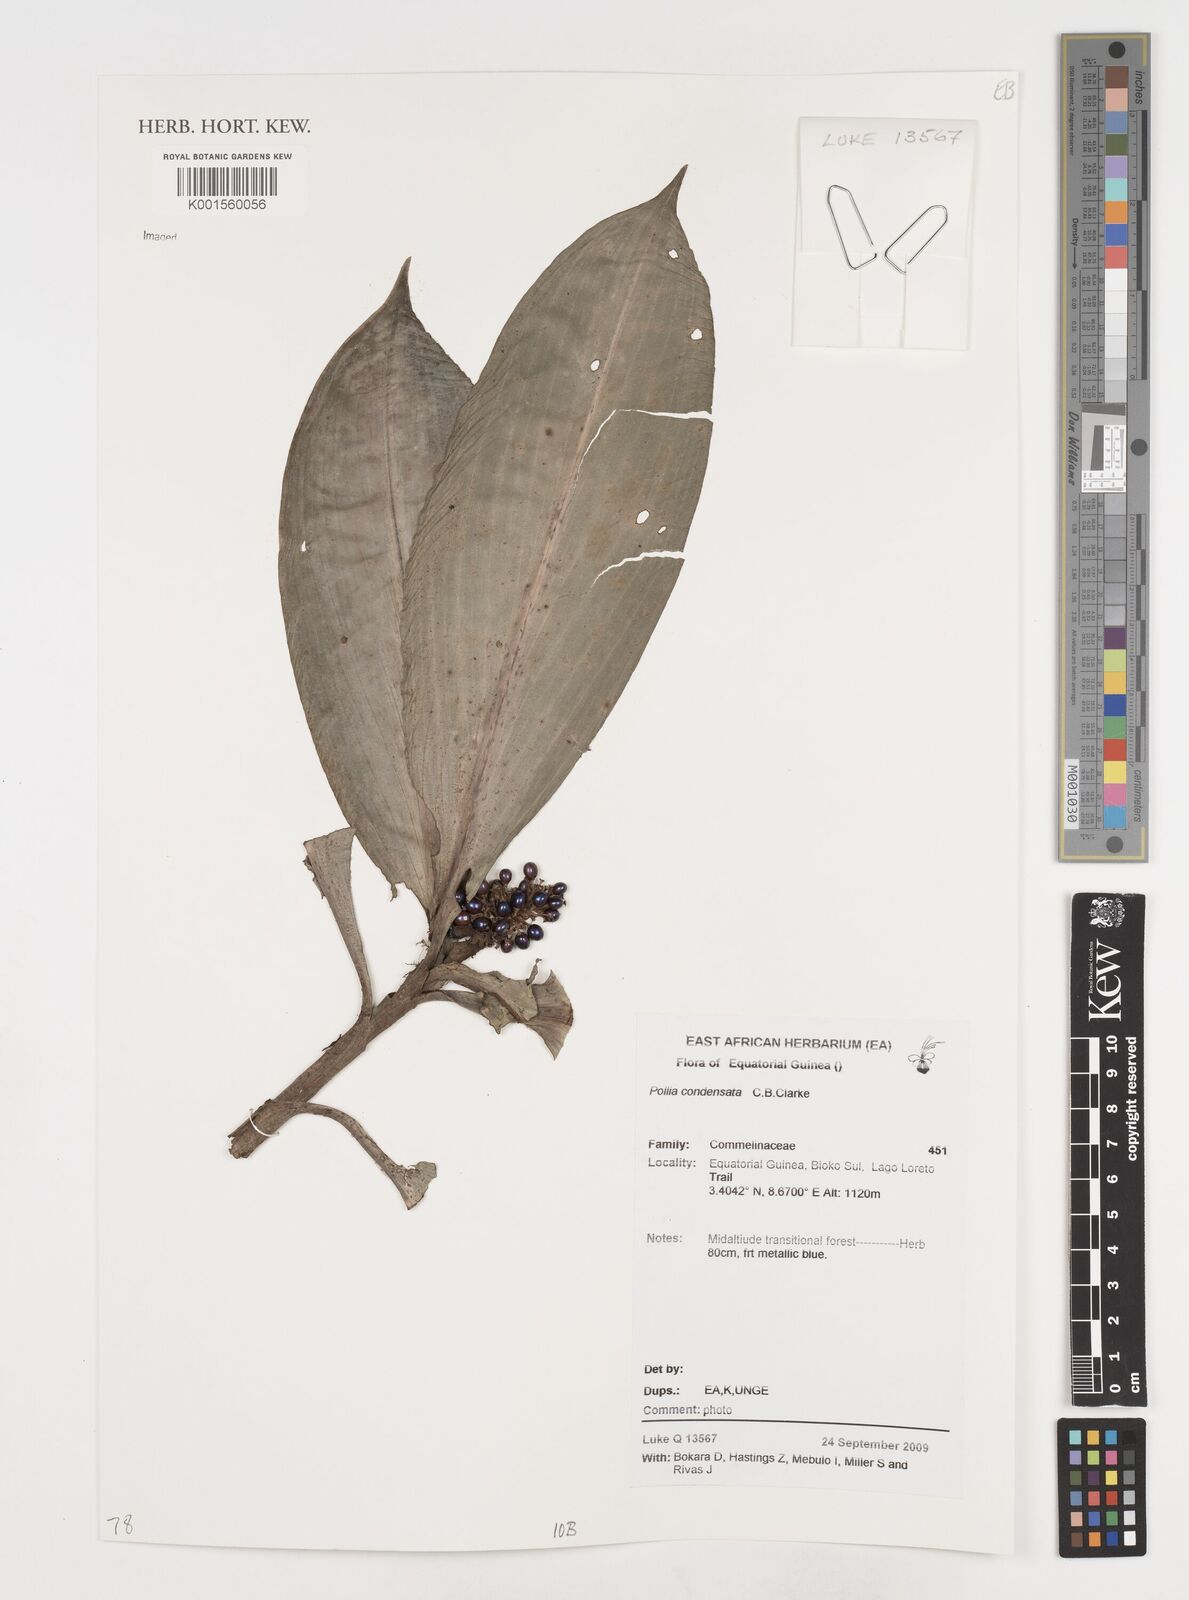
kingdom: Plantae
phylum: Tracheophyta
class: Liliopsida
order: Commelinales
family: Commelinaceae
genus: Pollia
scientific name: Pollia condensata
